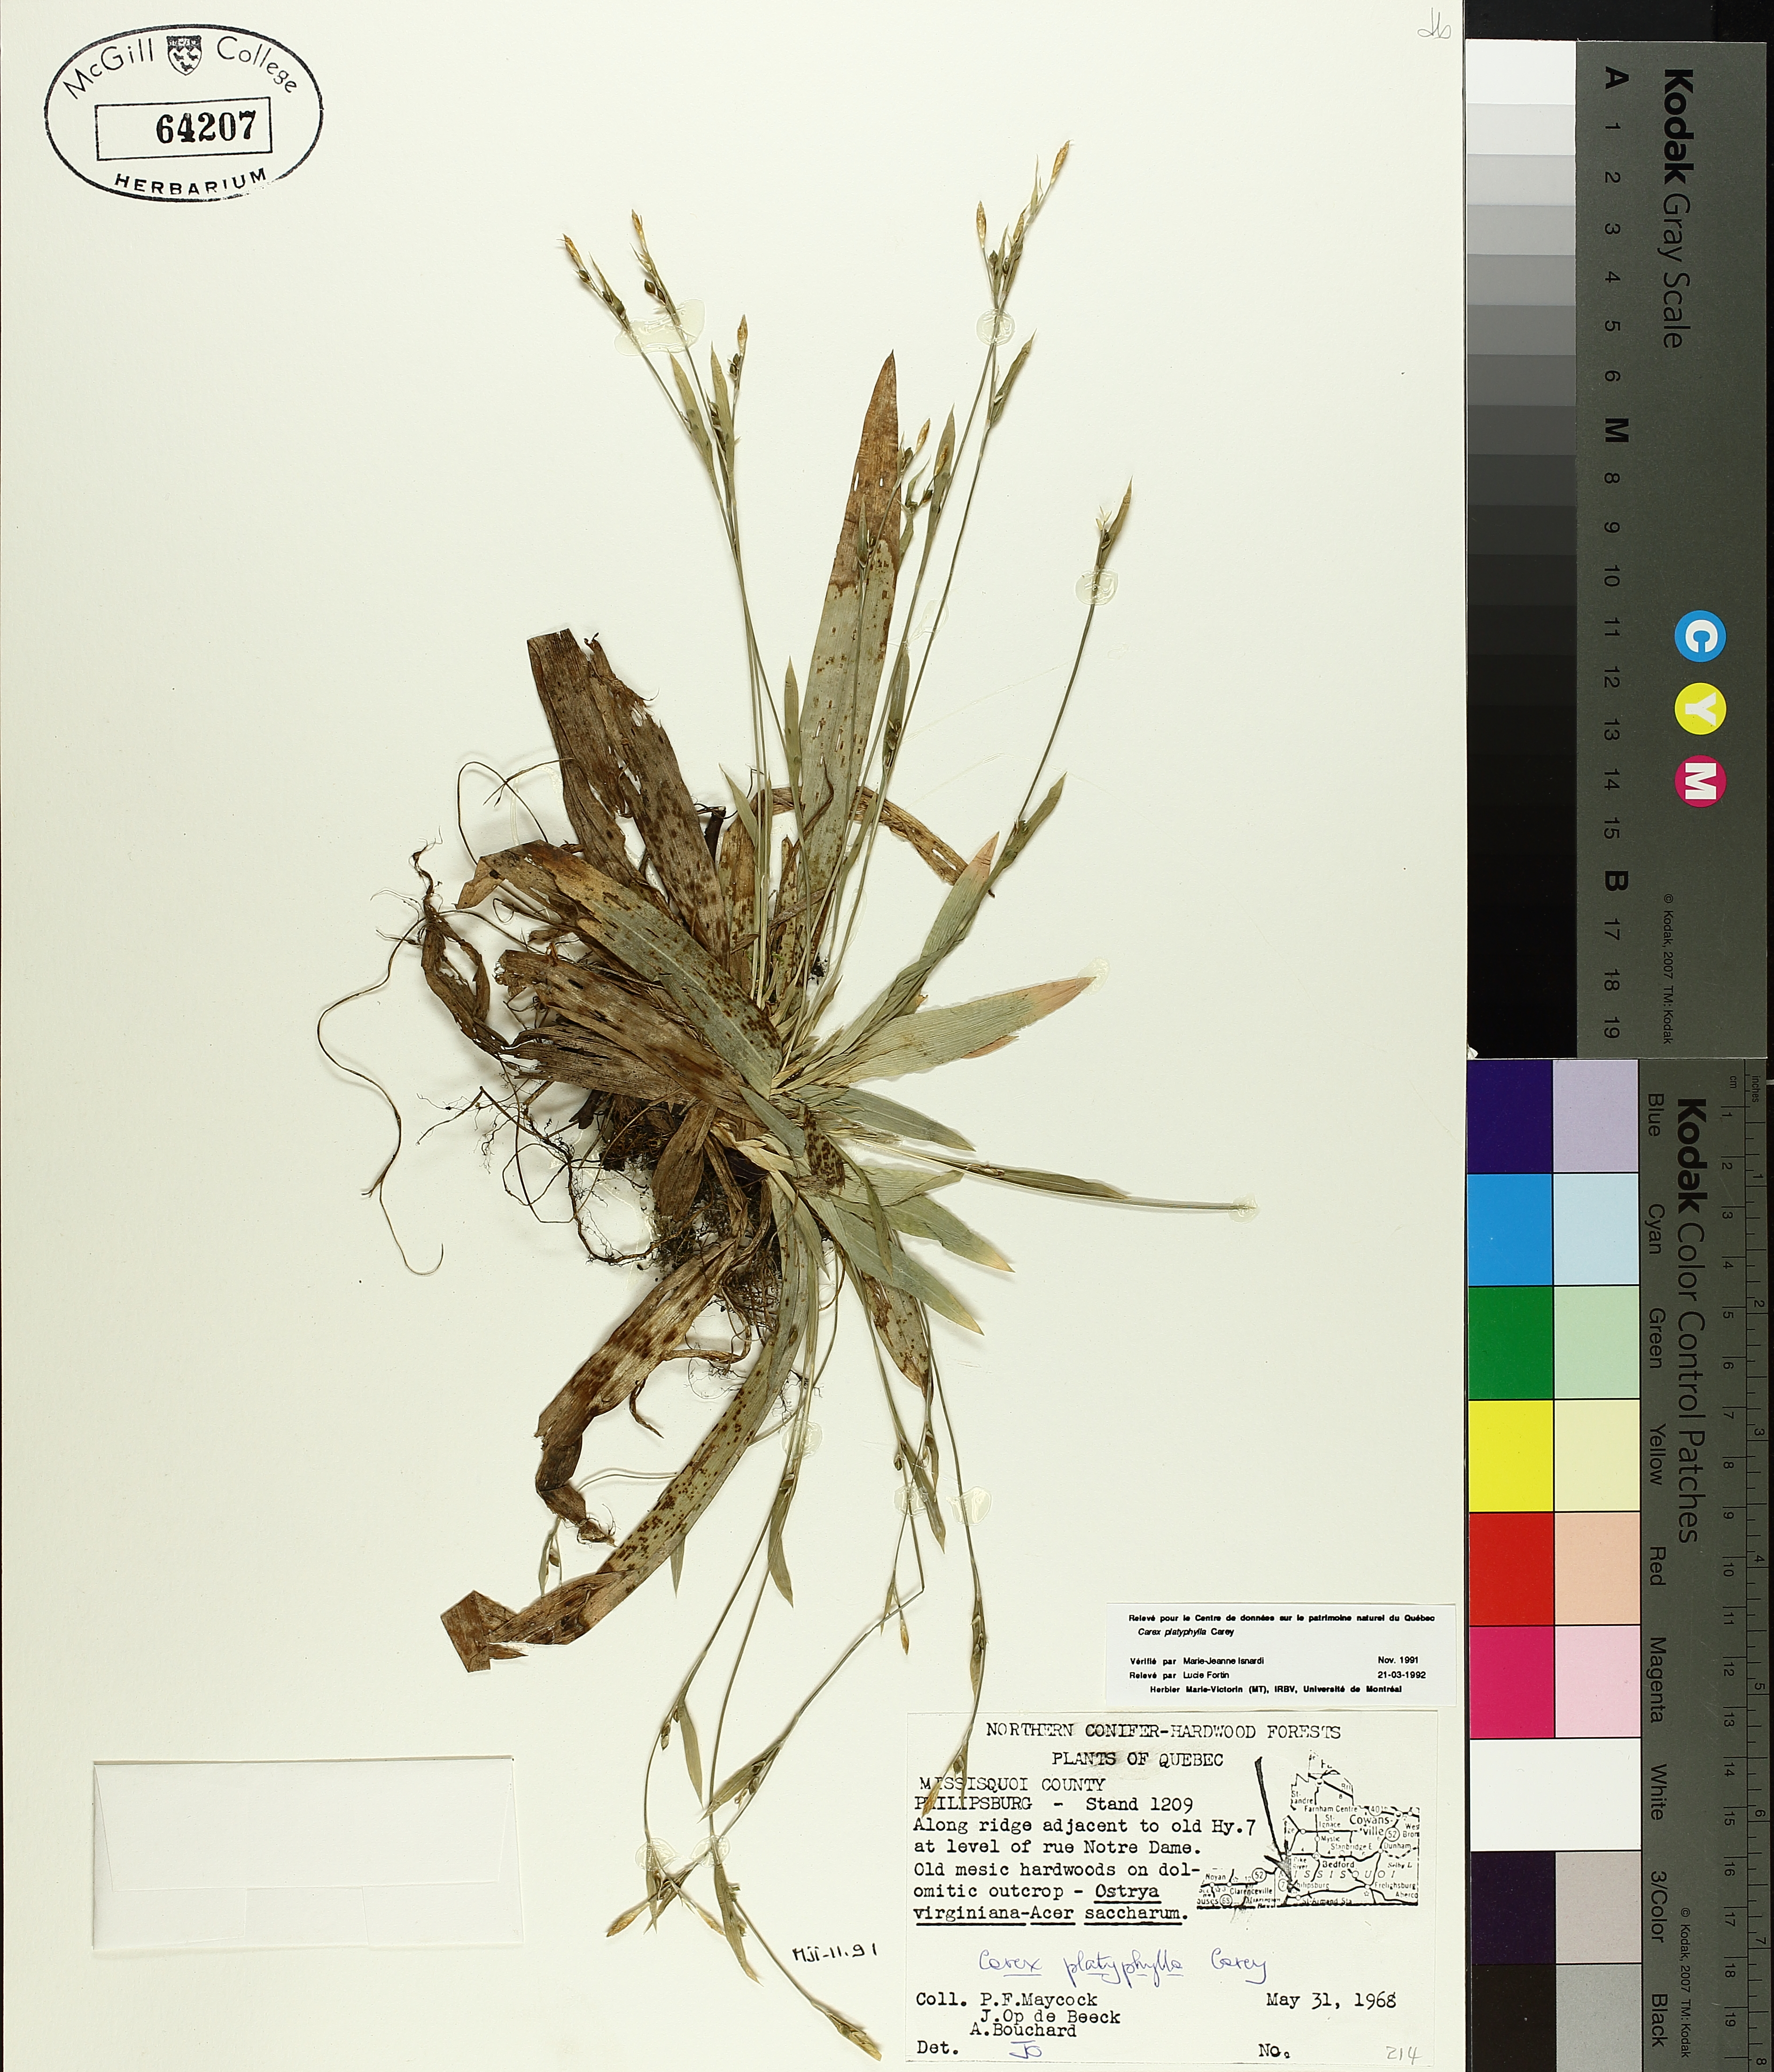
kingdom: Plantae
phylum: Tracheophyta
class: Liliopsida
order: Poales
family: Cyperaceae
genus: Carex
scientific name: Carex platyphylla
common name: Broad-leaved sedge
